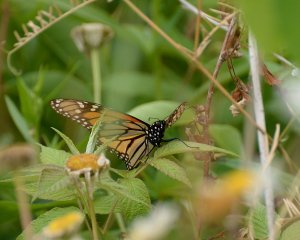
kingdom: Animalia
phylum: Arthropoda
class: Insecta
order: Lepidoptera
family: Nymphalidae
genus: Danaus
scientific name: Danaus plexippus
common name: Monarch
